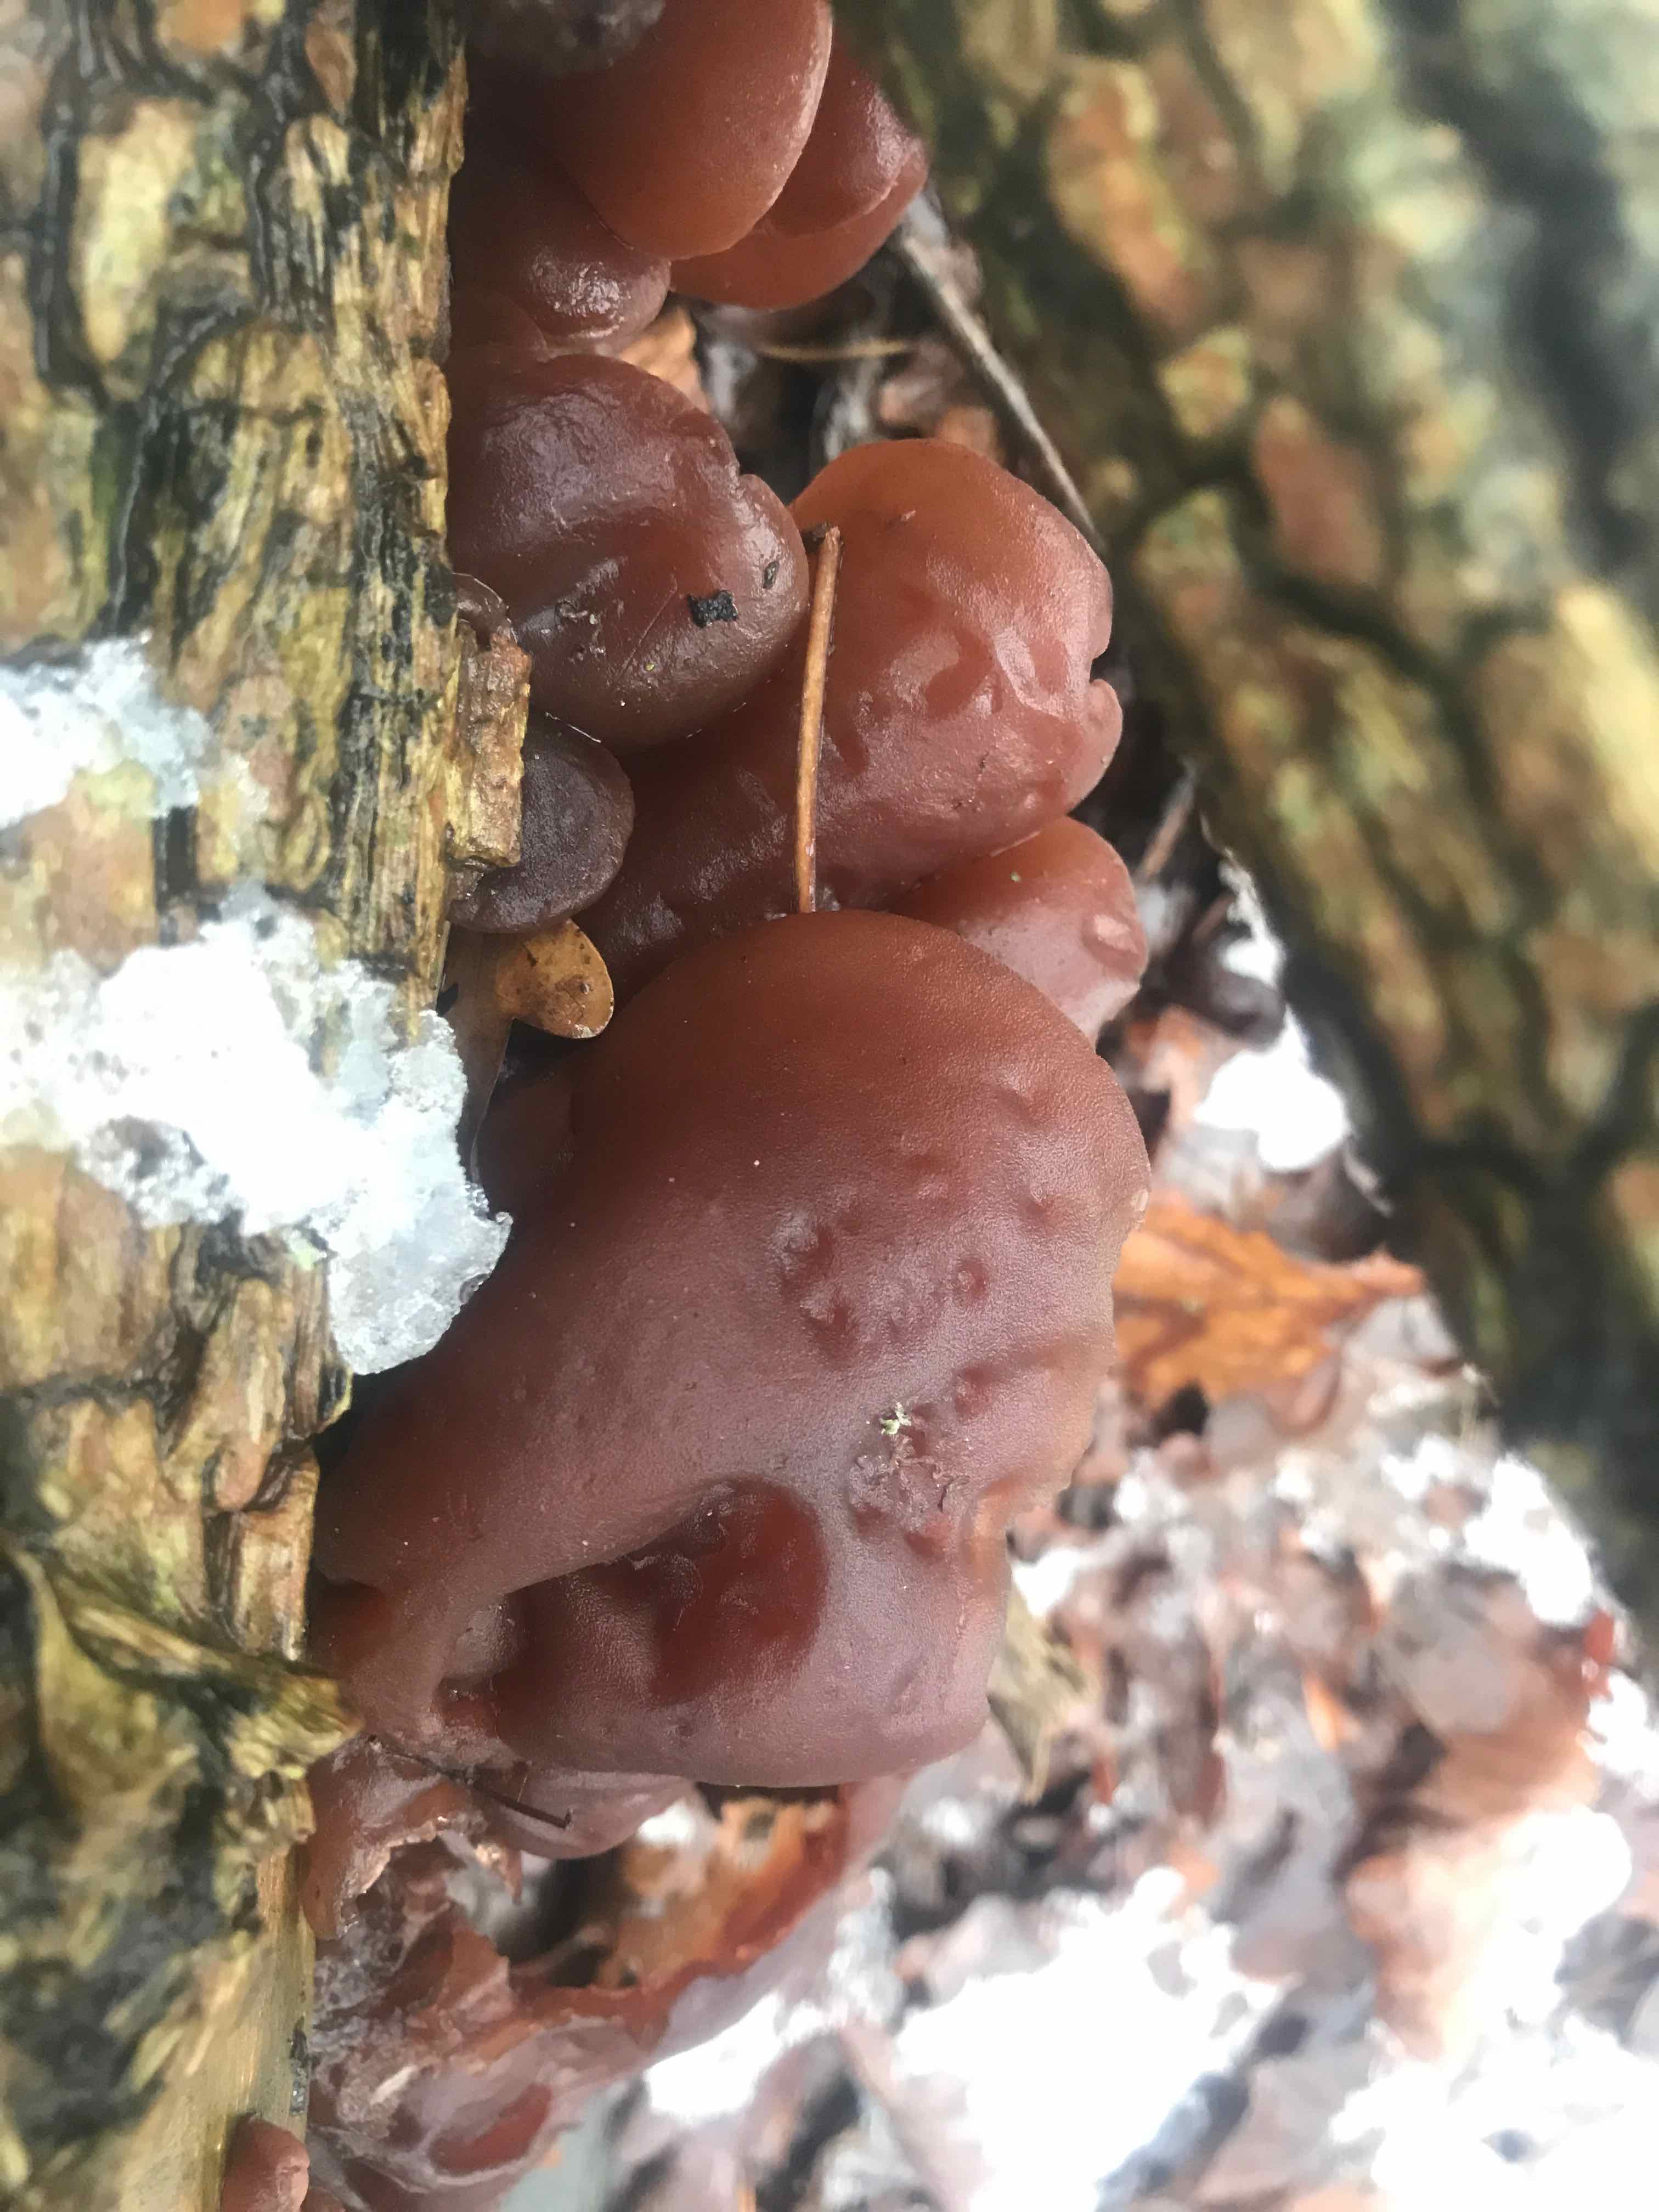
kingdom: Fungi
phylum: Basidiomycota
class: Agaricomycetes
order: Auriculariales
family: Auriculariaceae
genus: Auricularia
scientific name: Auricularia auricula-judae
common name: almindelig judasøre
